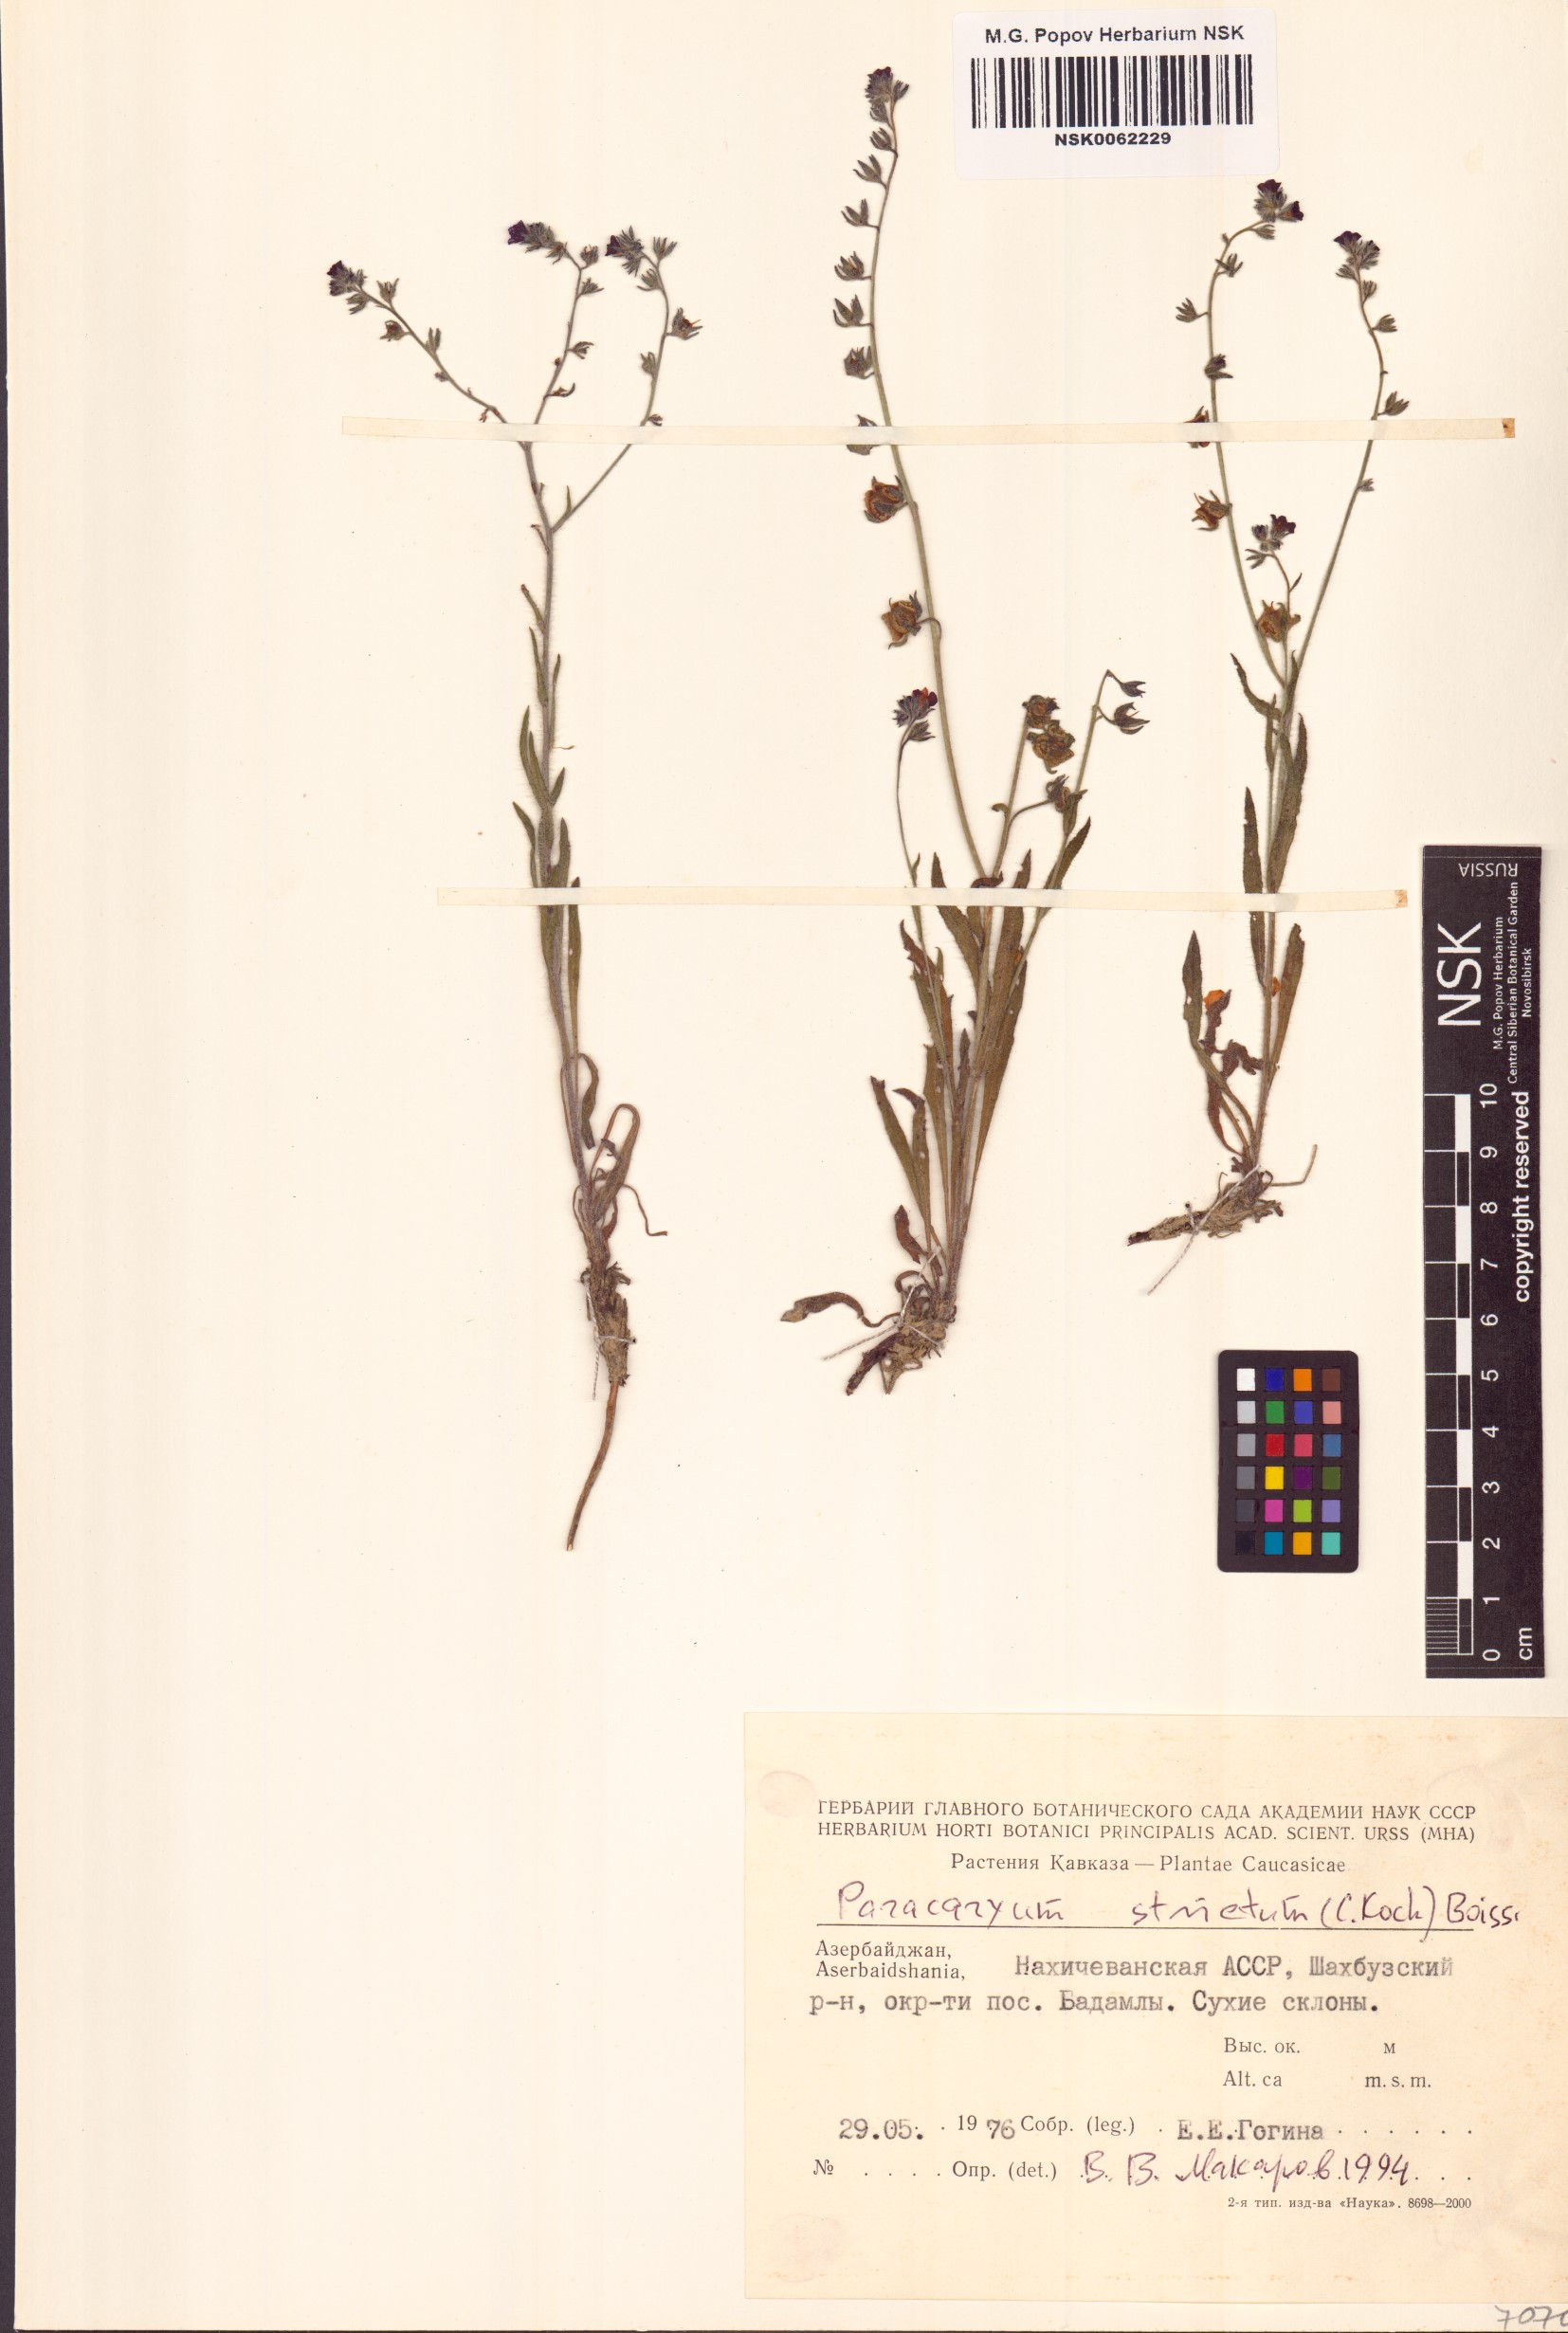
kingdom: Plantae
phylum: Tracheophyta
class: Magnoliopsida
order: Boraginales
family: Boraginaceae
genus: Paracaryum
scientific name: Paracaryum strictum
